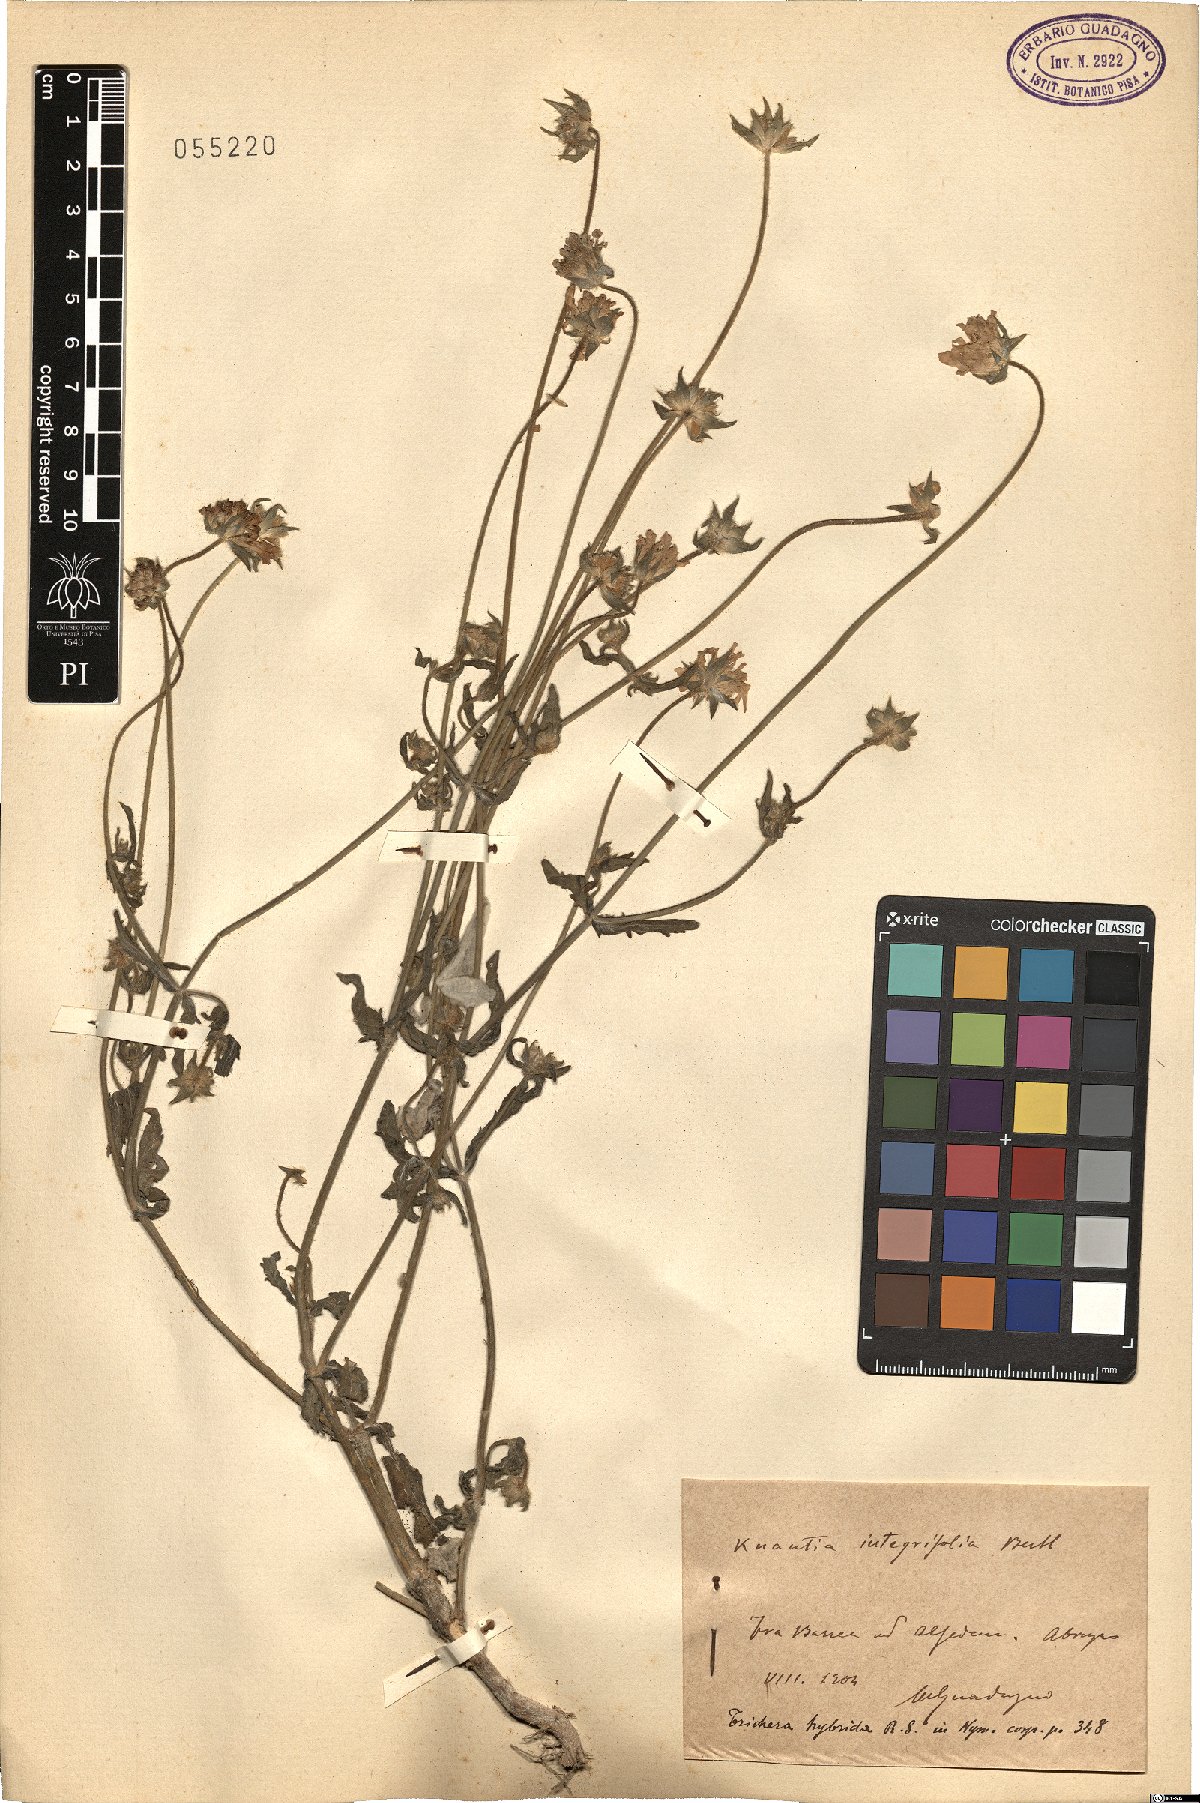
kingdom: Plantae
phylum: Tracheophyta
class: Magnoliopsida
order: Dipsacales
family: Caprifoliaceae
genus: Knautia
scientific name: Knautia integrifolia
